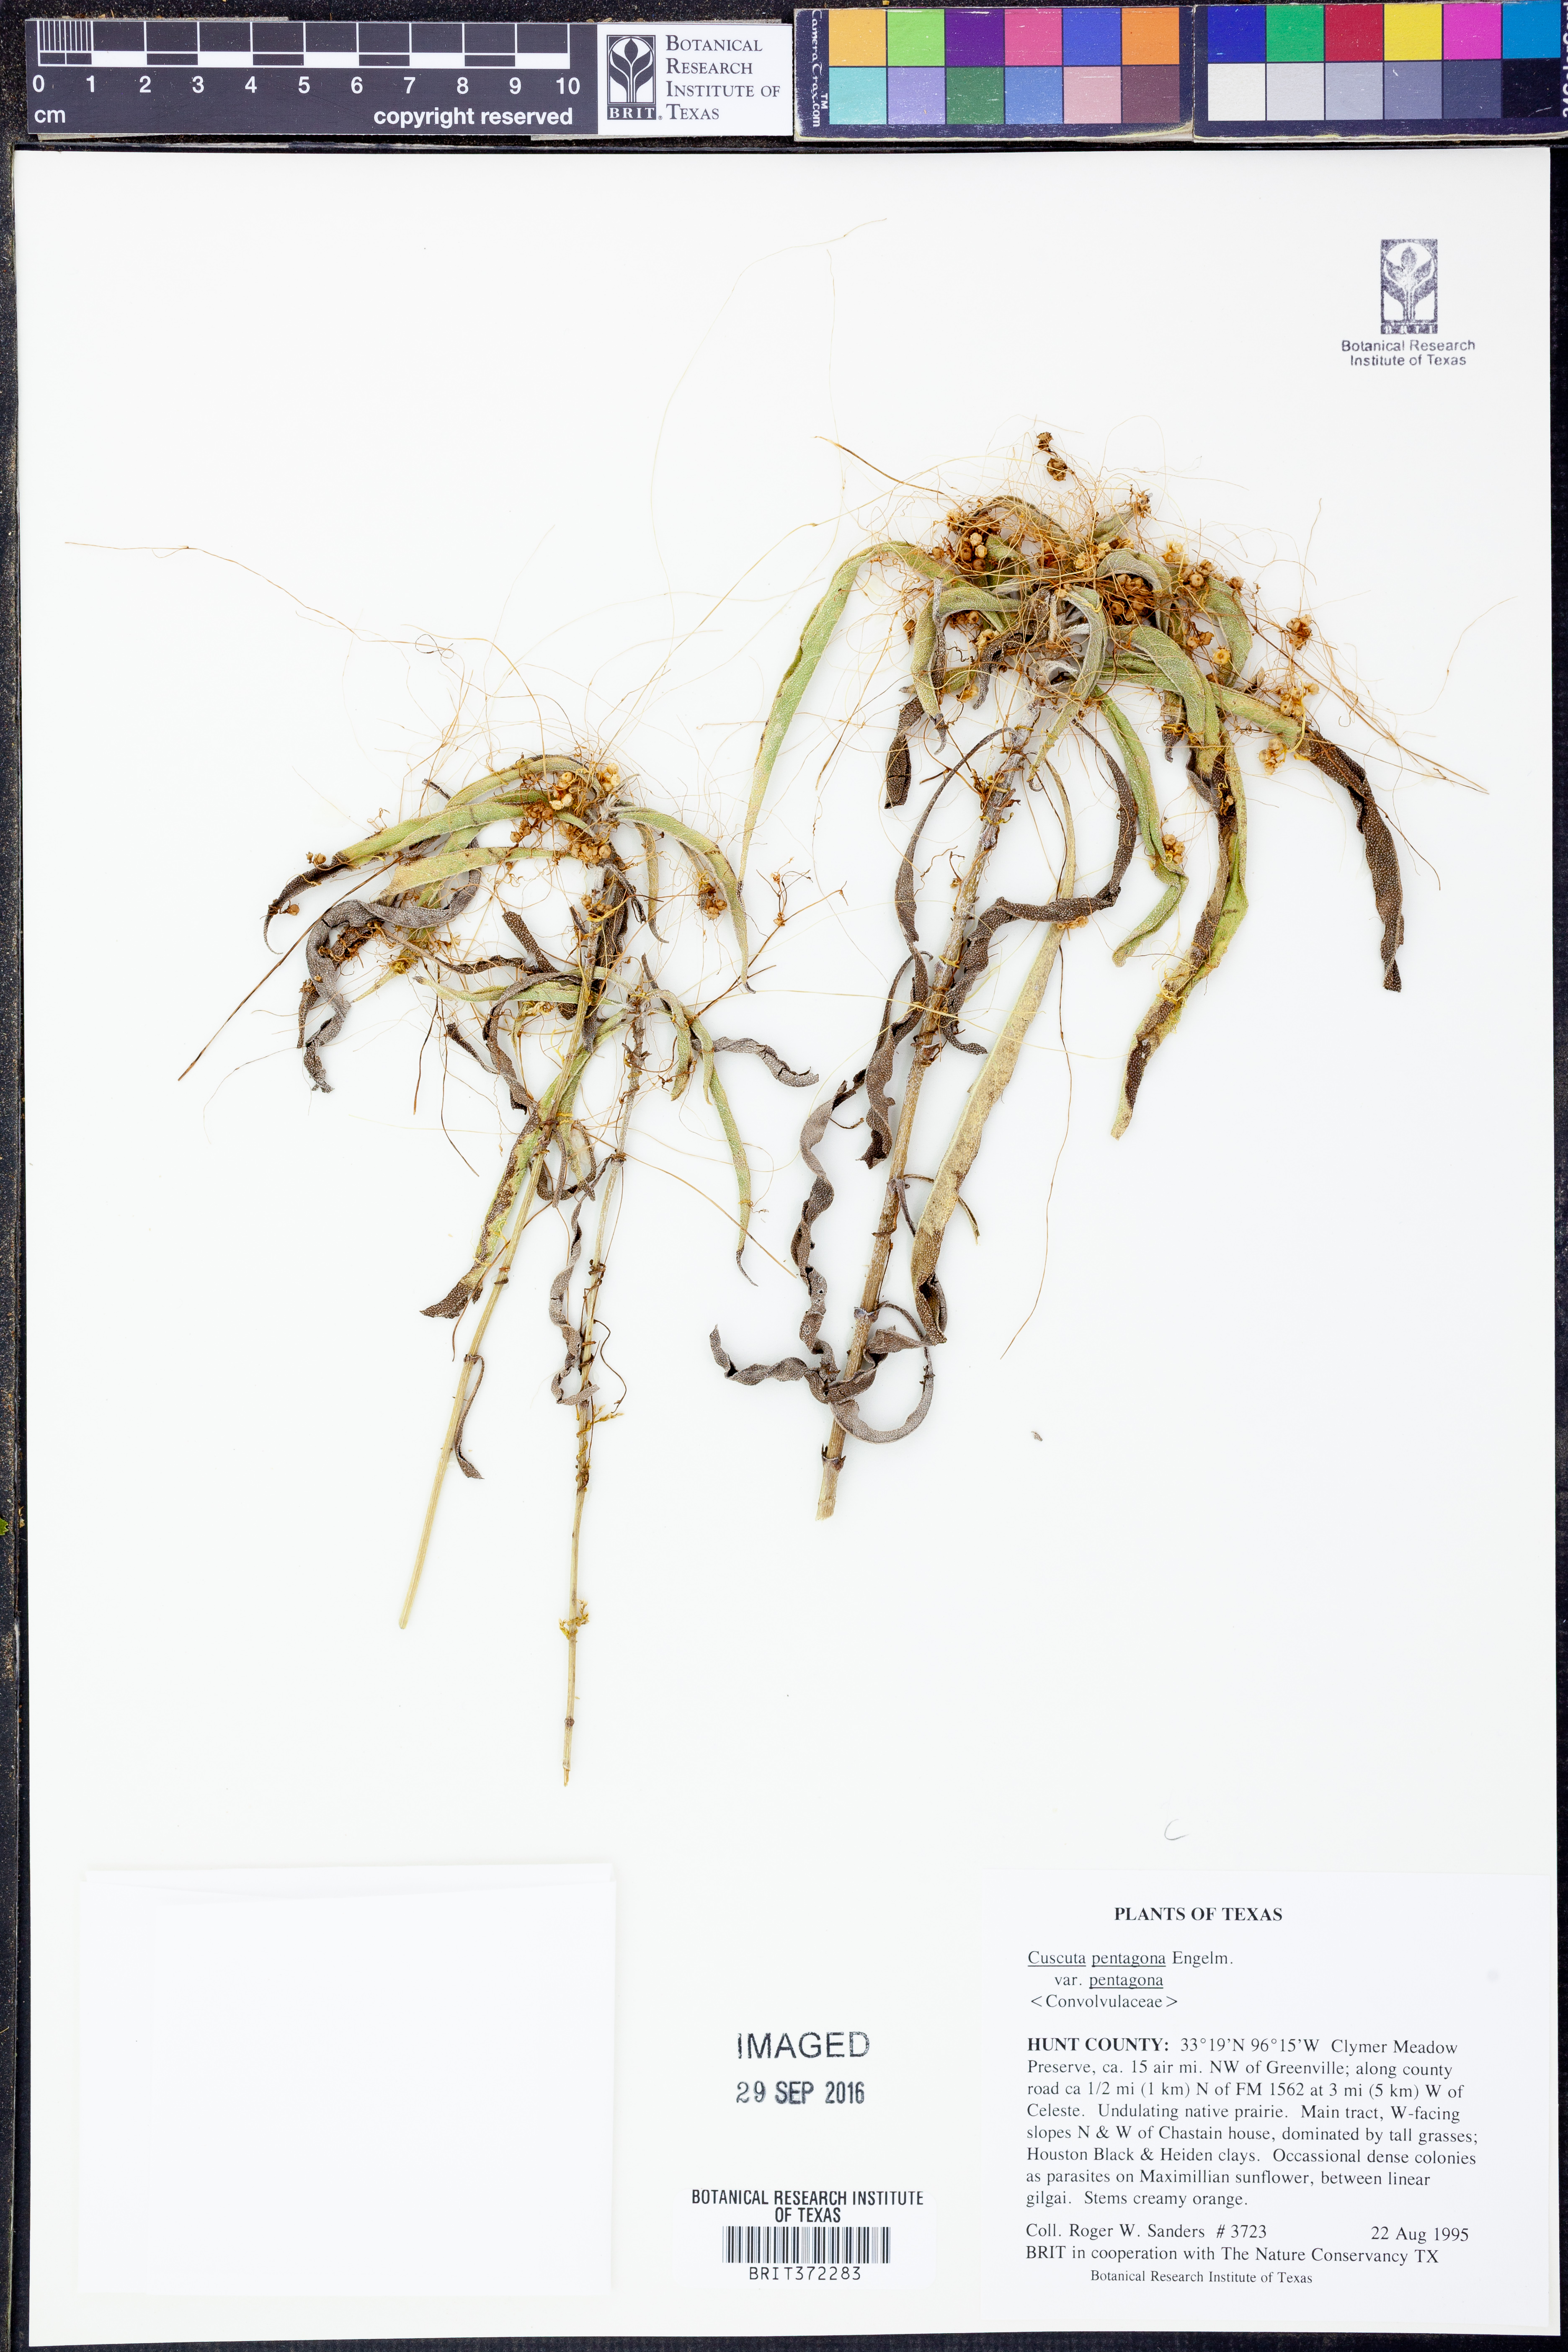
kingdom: Plantae
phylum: Tracheophyta
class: Magnoliopsida
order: Solanales
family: Convolvulaceae
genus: Cuscuta
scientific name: Cuscuta pentagona
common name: Fiveangled dodder
